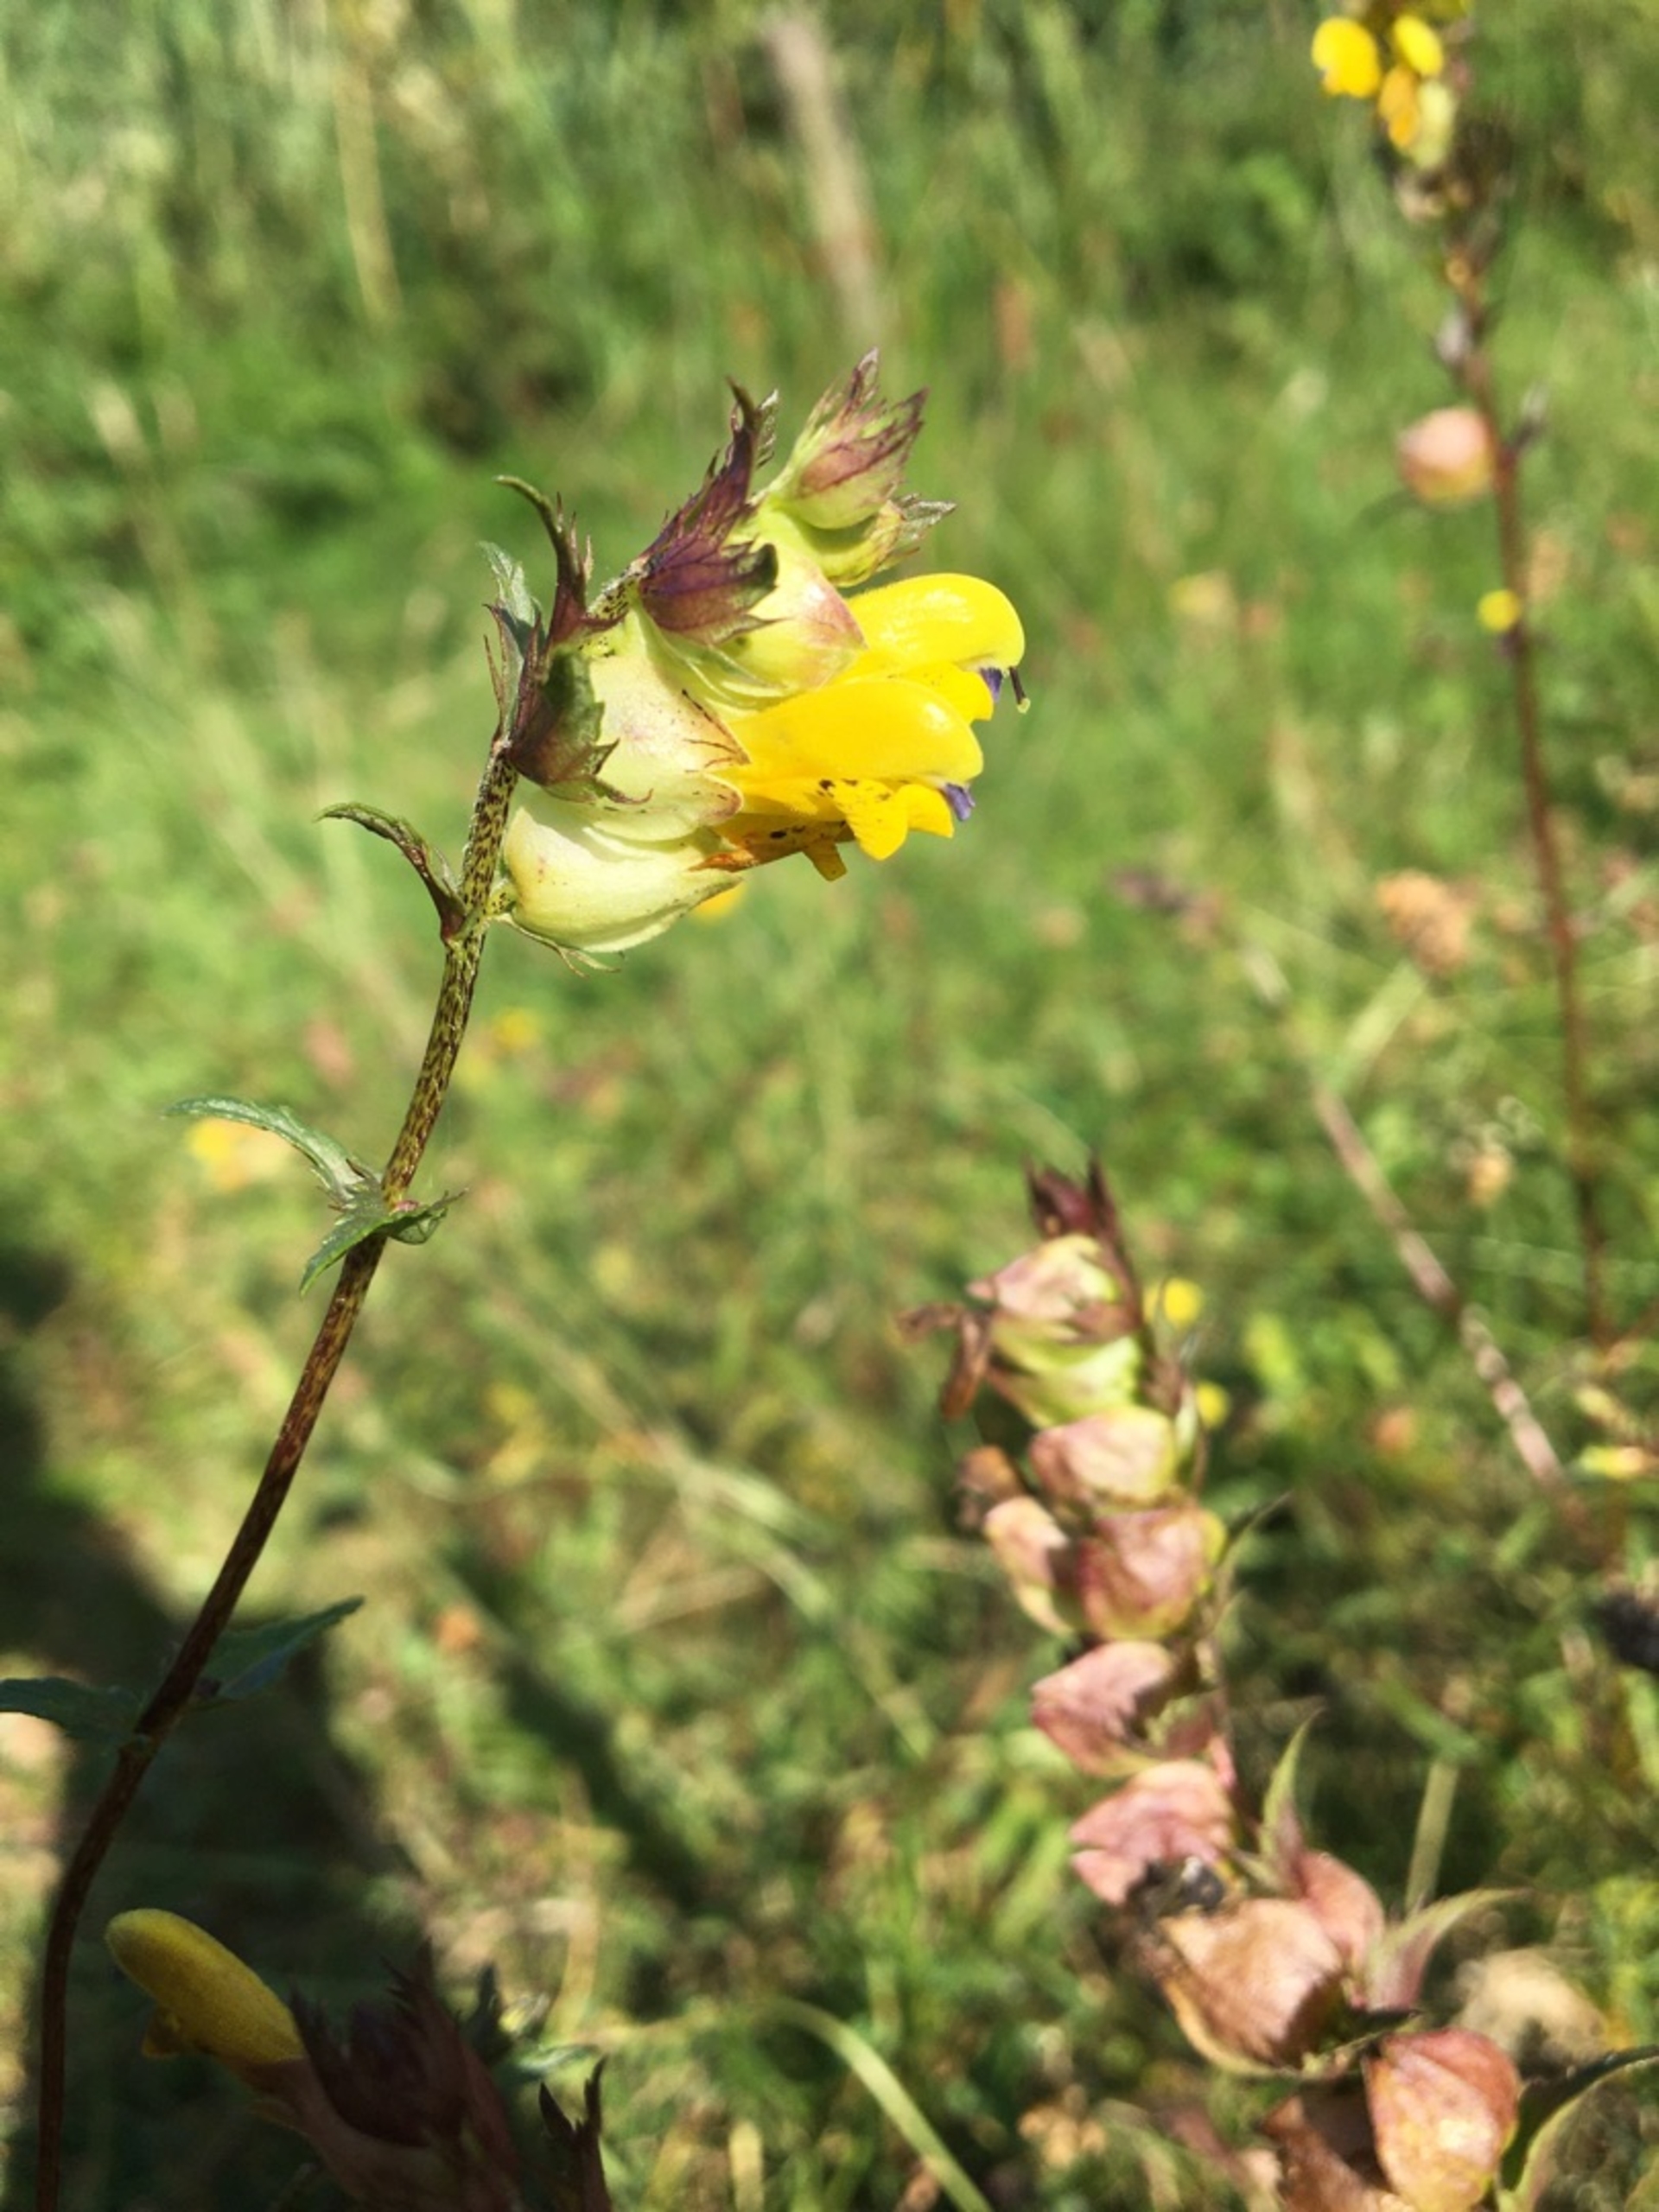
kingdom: Plantae
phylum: Tracheophyta
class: Magnoliopsida
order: Lamiales
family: Orobanchaceae
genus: Rhinanthus
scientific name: Rhinanthus
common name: Stor skjaller
